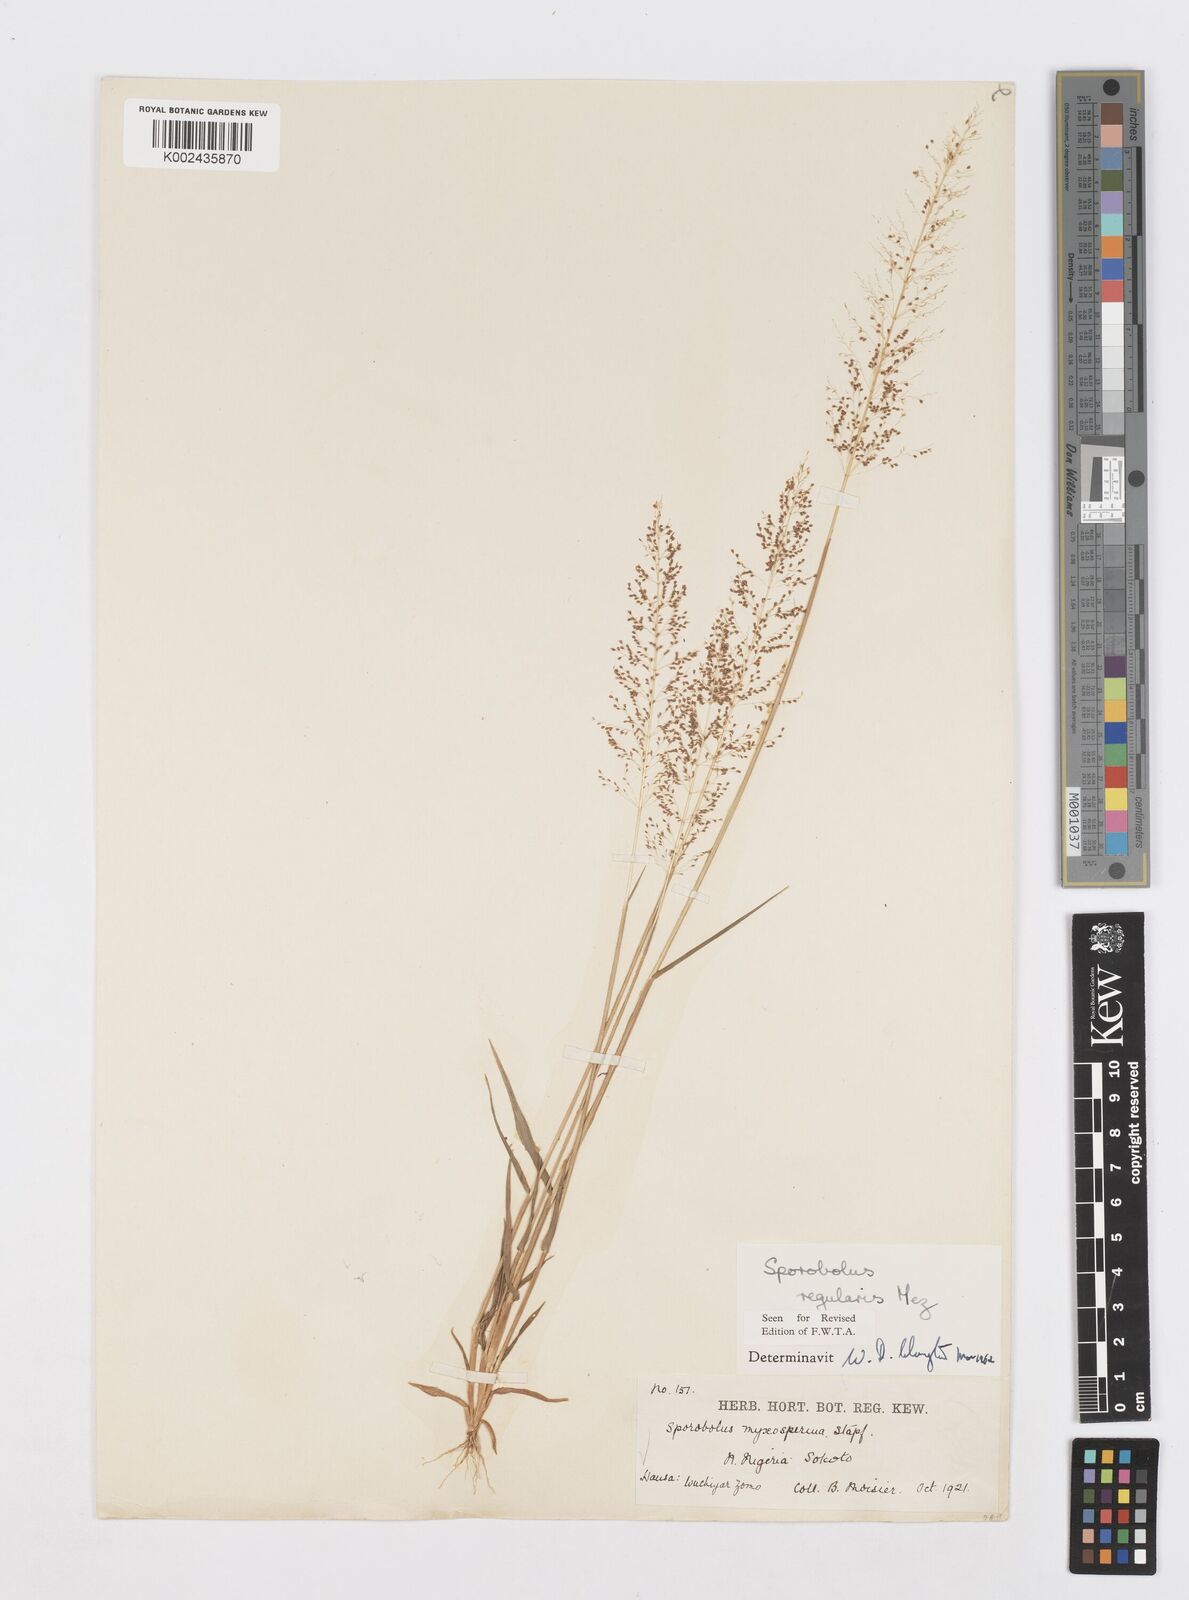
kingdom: Plantae
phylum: Tracheophyta
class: Liliopsida
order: Poales
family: Poaceae
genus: Sporobolus
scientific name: Sporobolus micranthus
